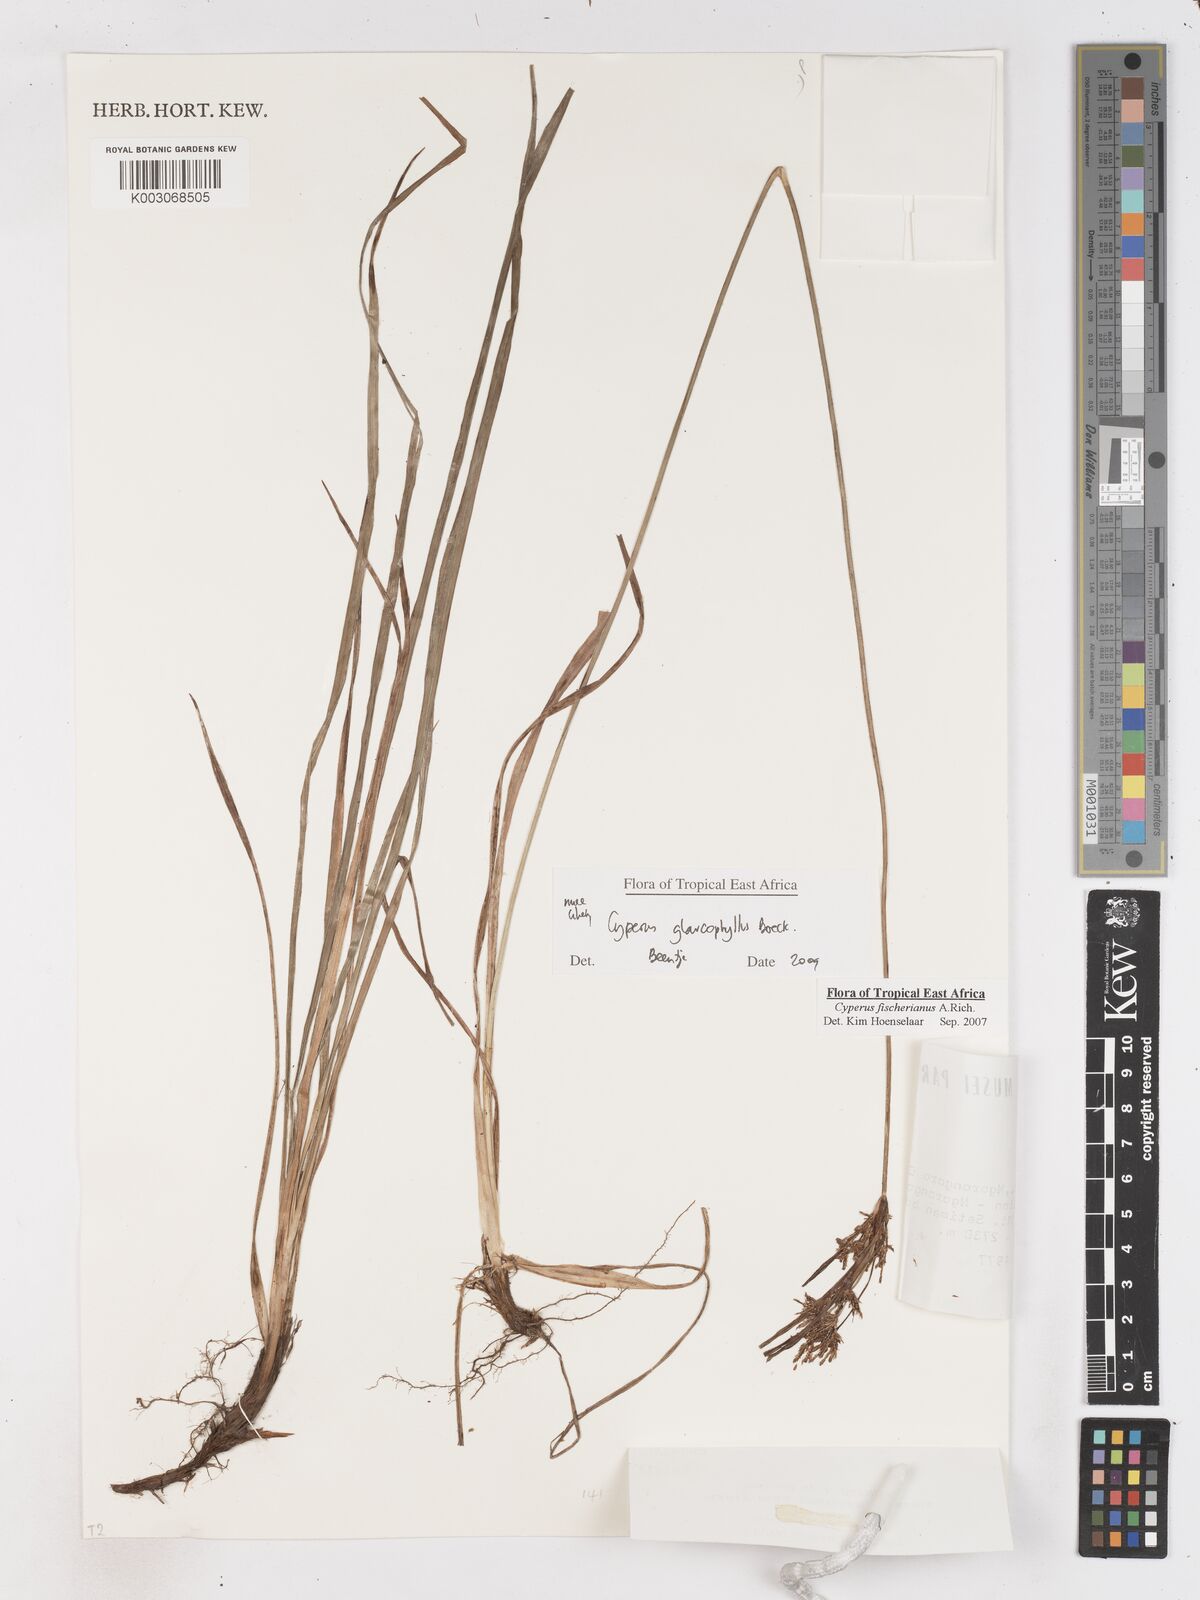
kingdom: Plantae
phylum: Tracheophyta
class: Liliopsida
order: Poales
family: Cyperaceae
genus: Cyperus
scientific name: Cyperus glaucophyllus
